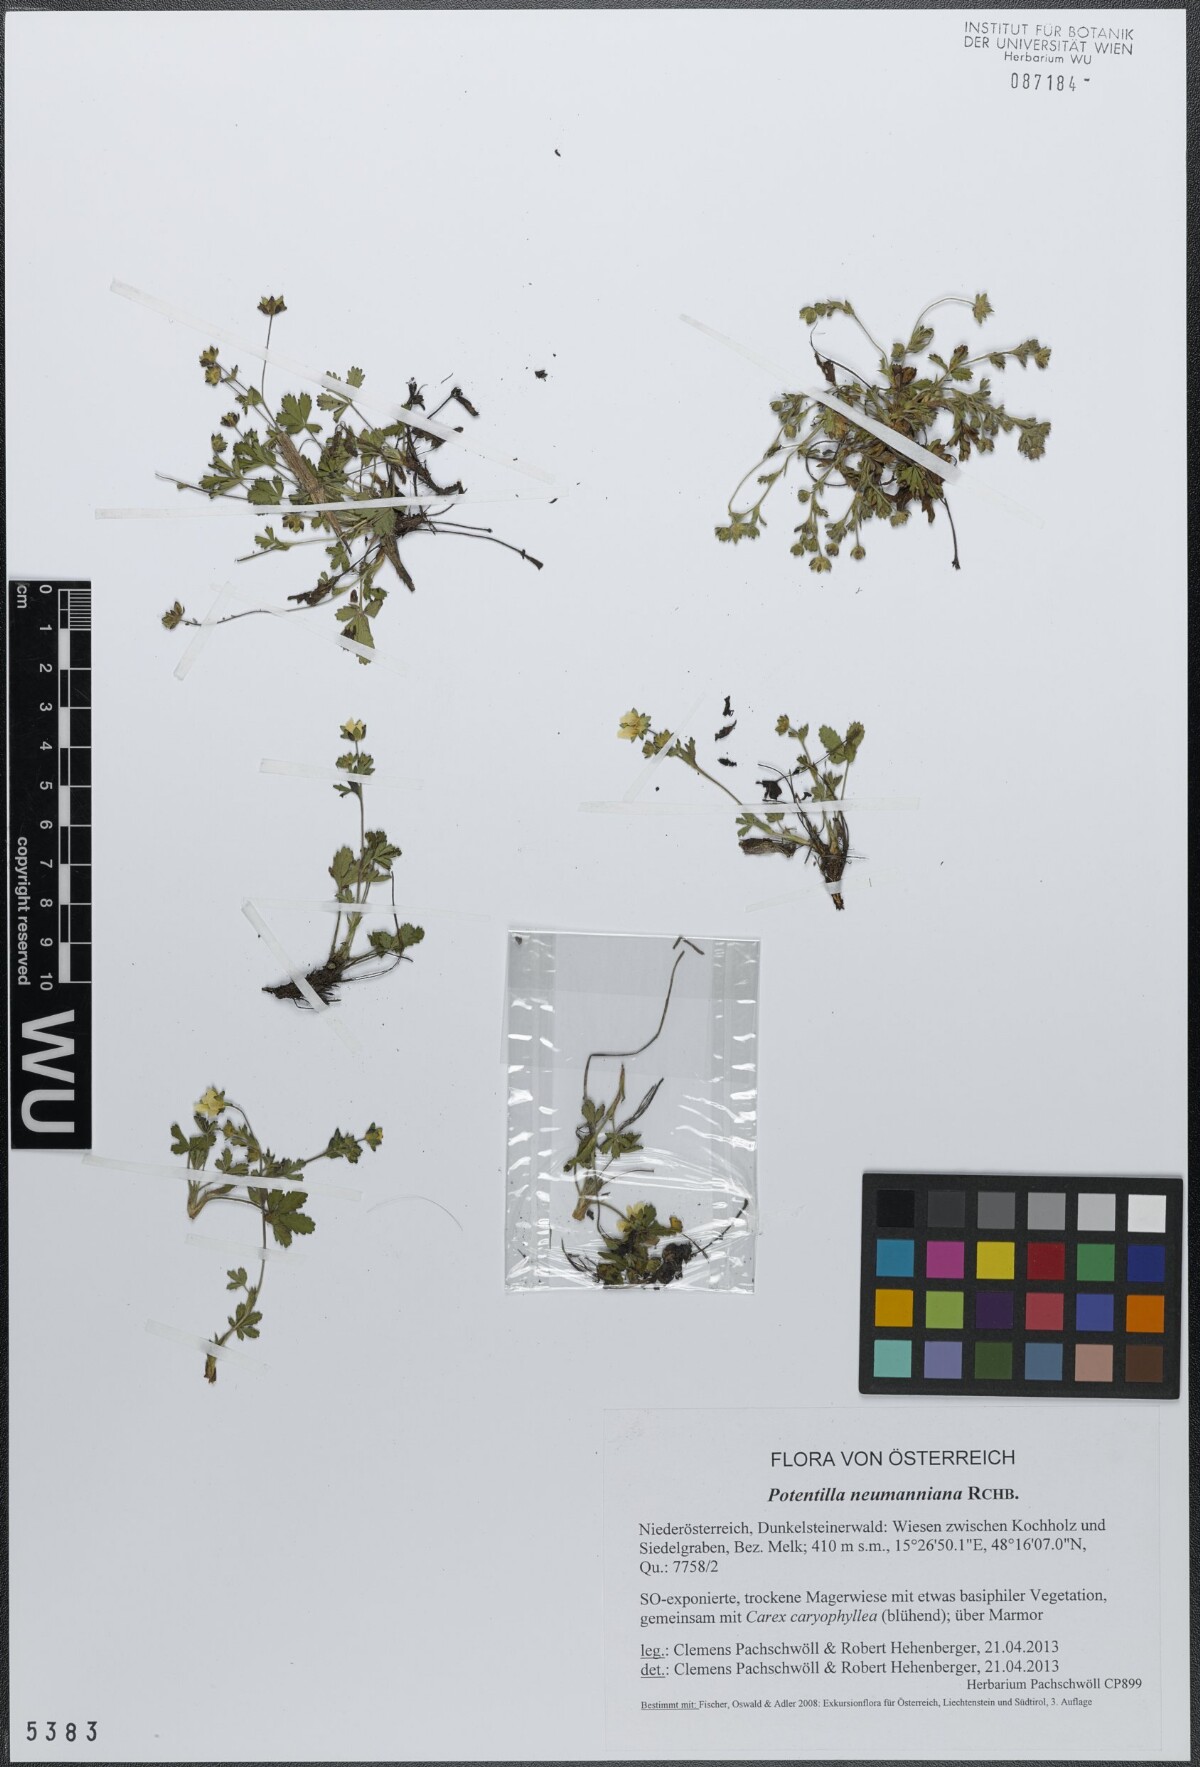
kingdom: Plantae
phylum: Tracheophyta
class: Magnoliopsida
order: Rosales
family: Rosaceae
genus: Potentilla
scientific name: Potentilla verna
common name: Spring cinquefoil
